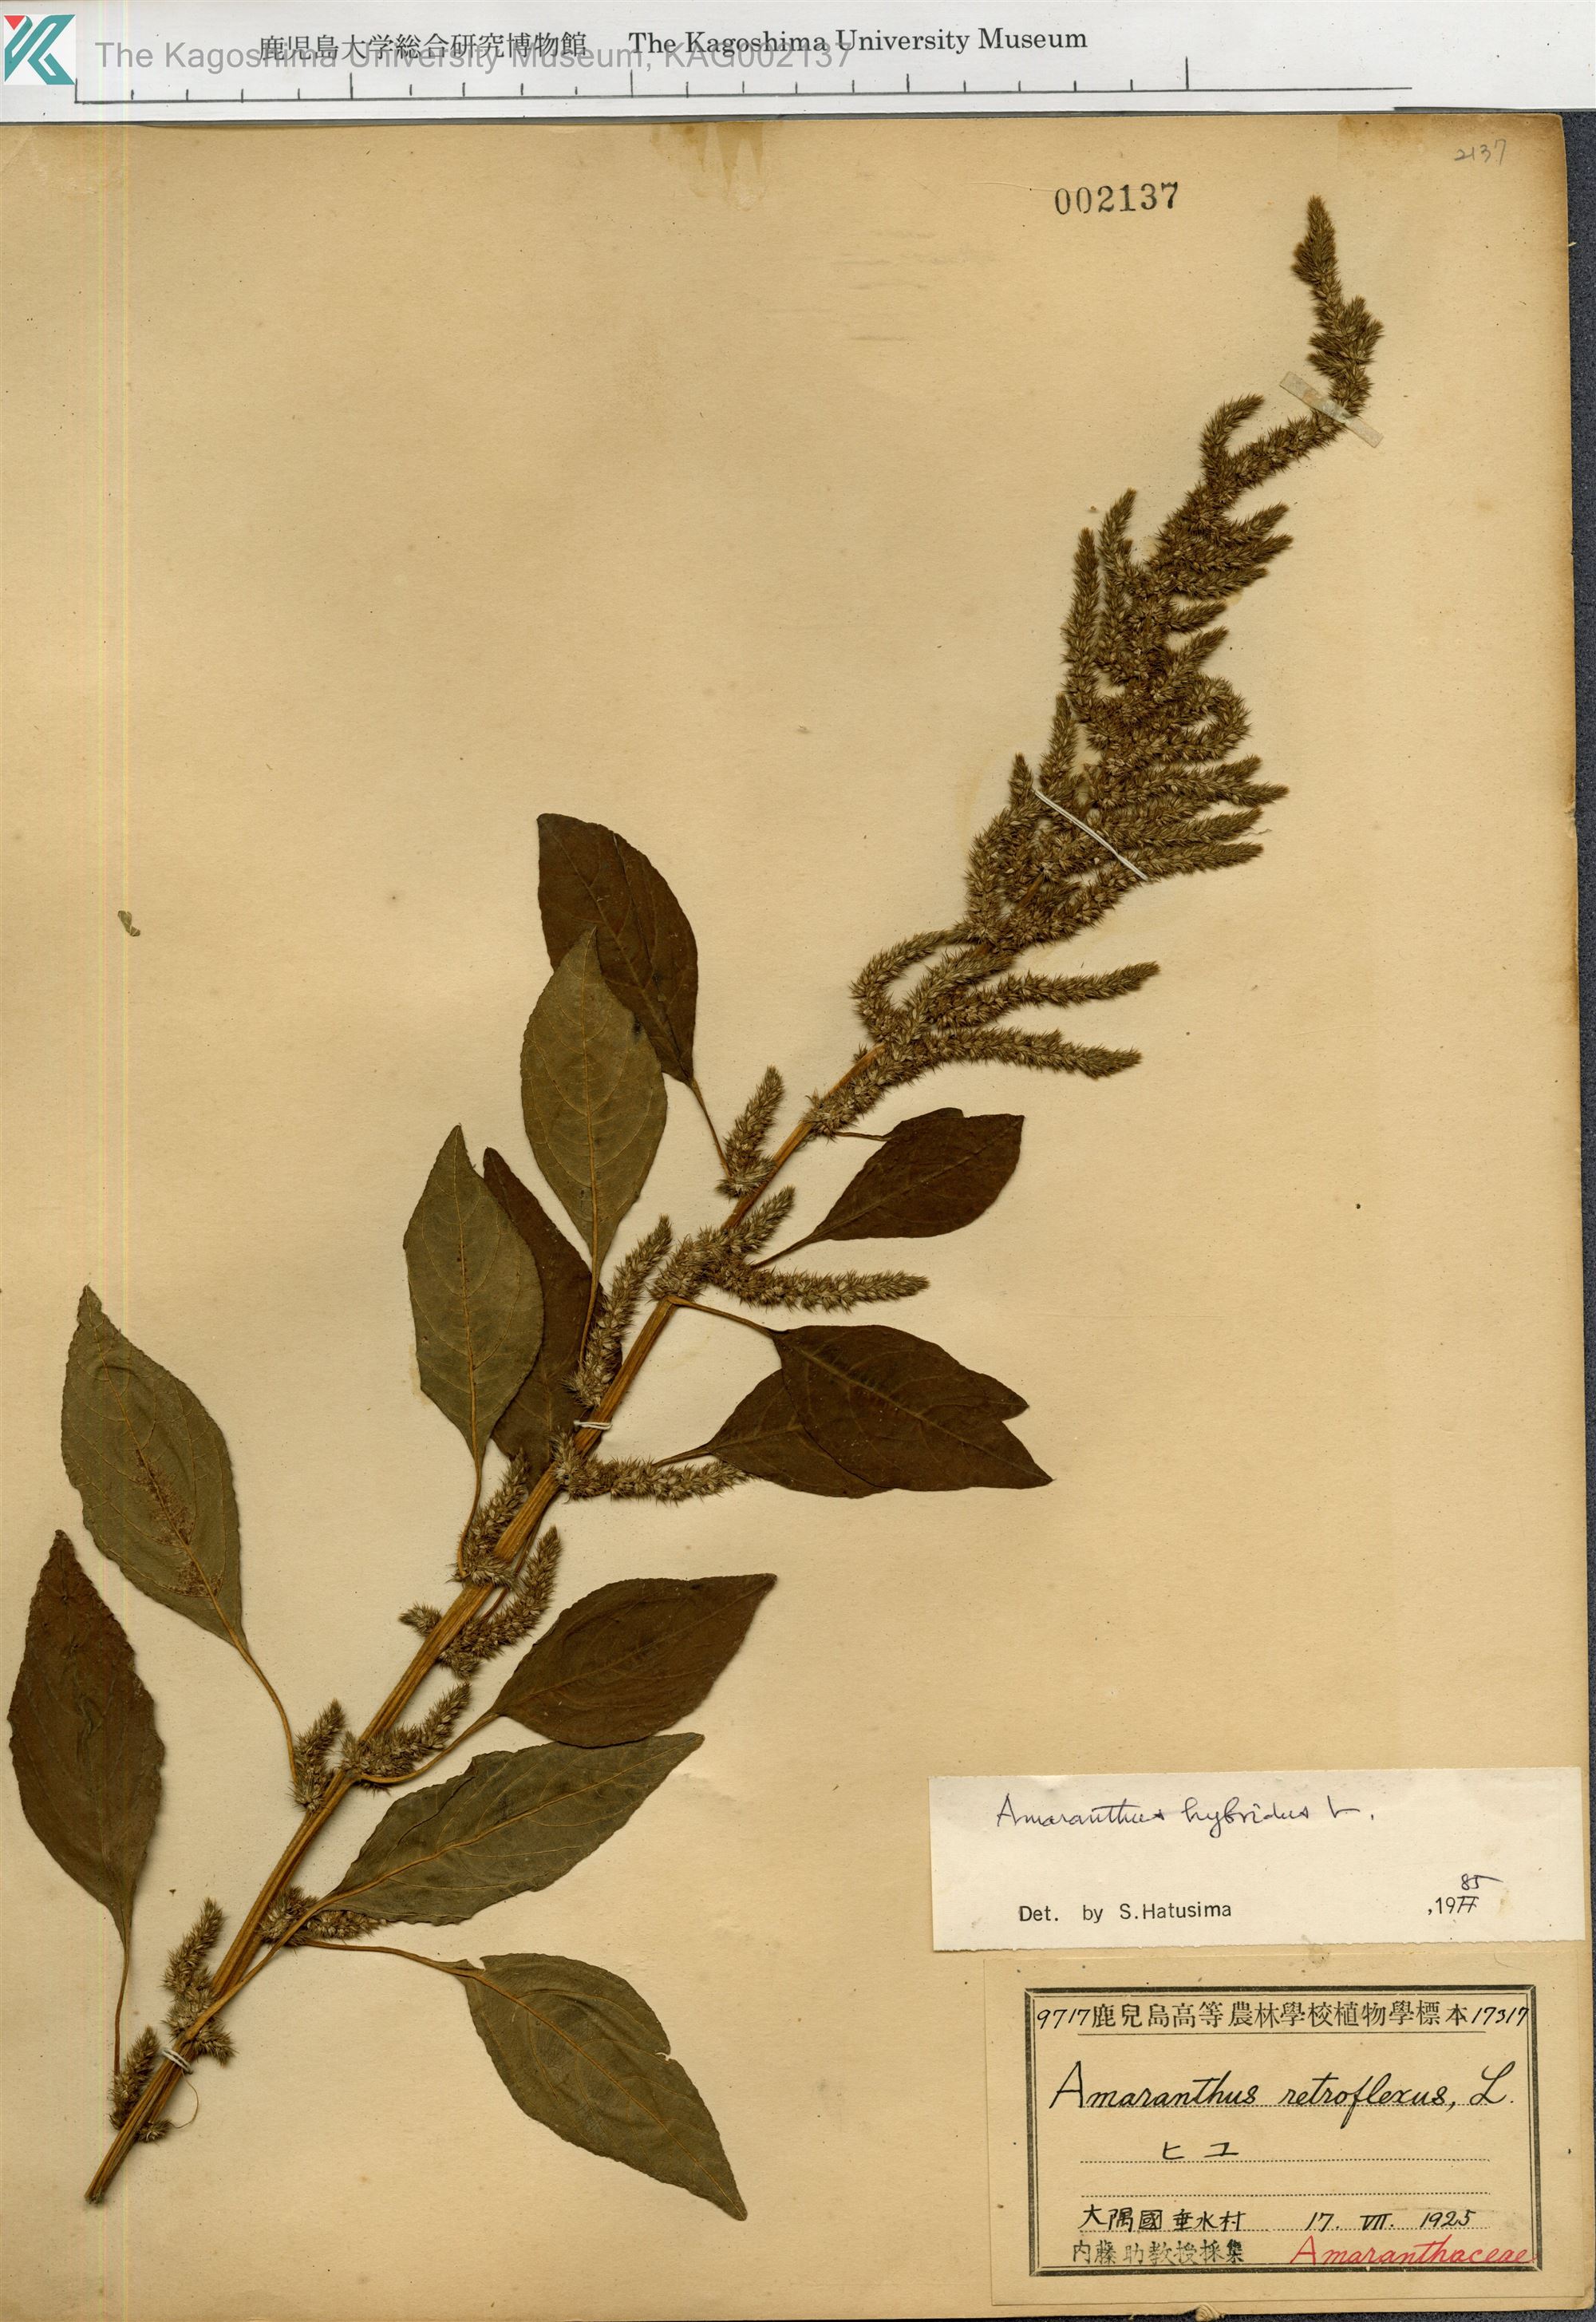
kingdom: Plantae
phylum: Tracheophyta
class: Magnoliopsida
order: Caryophyllales
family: Amaranthaceae
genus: Amaranthus
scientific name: Amaranthus hybridus
